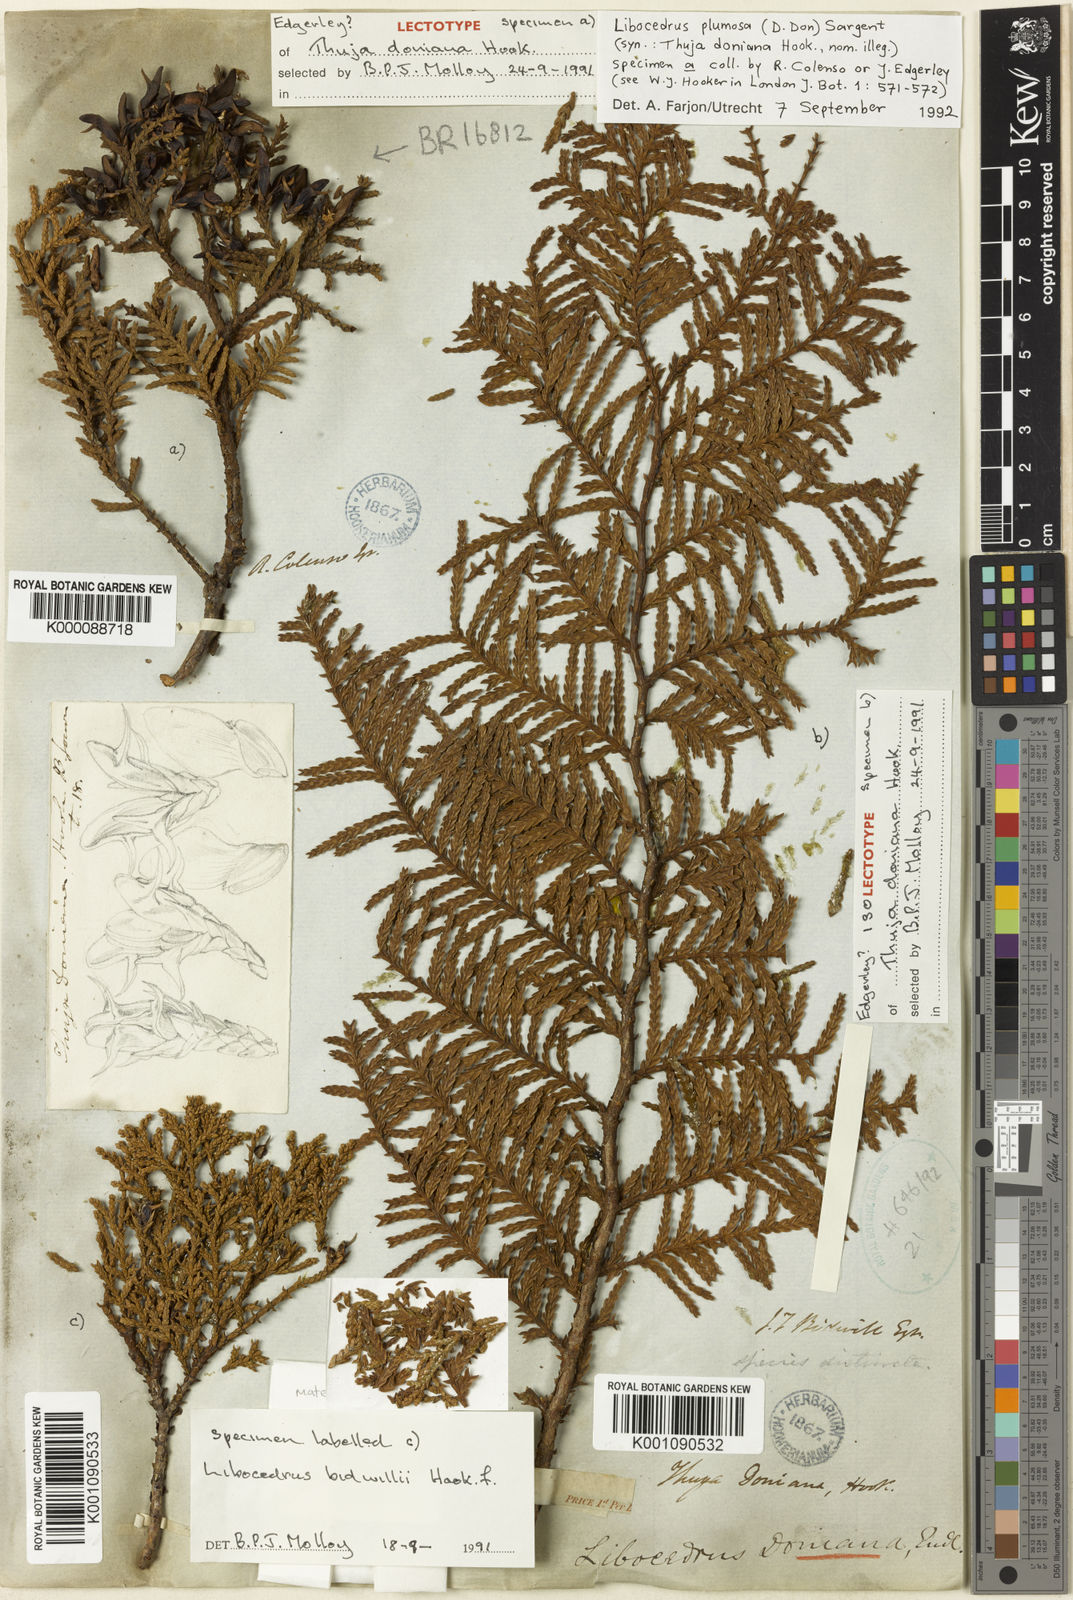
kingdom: Plantae
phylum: Tracheophyta
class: Pinopsida
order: Pinales
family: Cupressaceae
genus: Libocedrus
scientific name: Libocedrus
